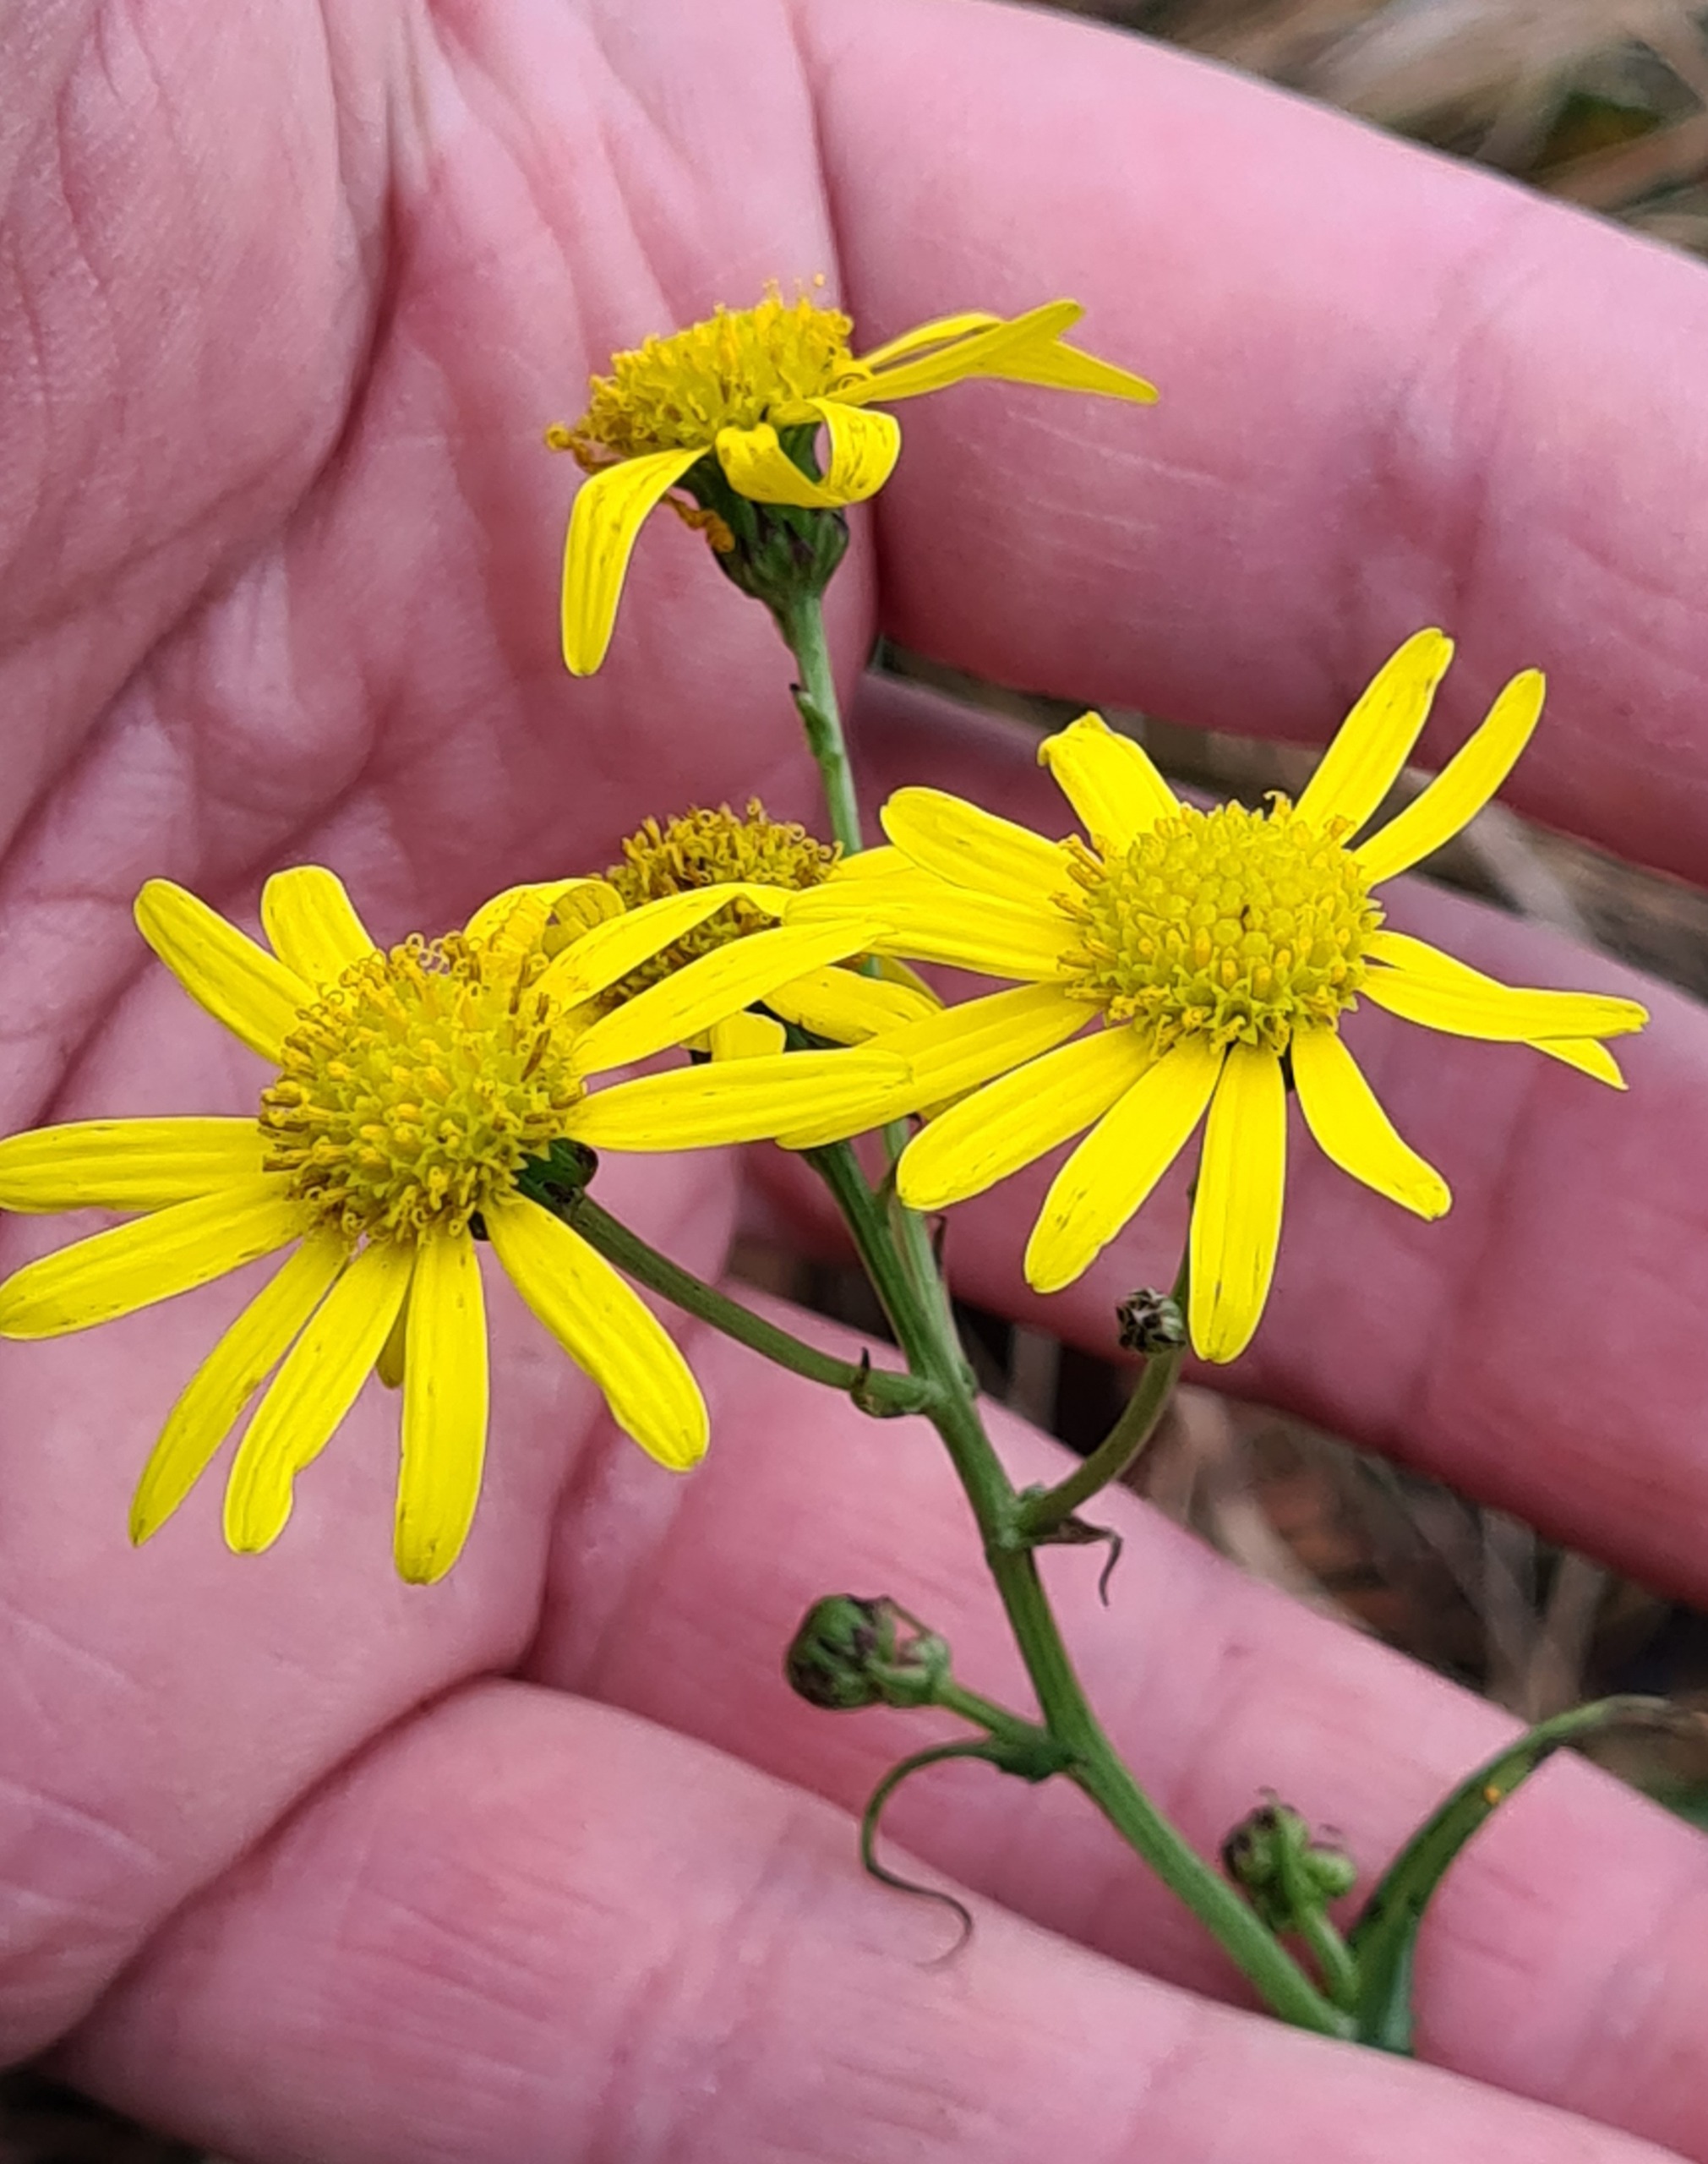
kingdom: Plantae
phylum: Tracheophyta
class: Magnoliopsida
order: Asterales
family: Asteraceae
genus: Senecio
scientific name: Senecio inaequidens
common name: Smalbladet brandbæger
